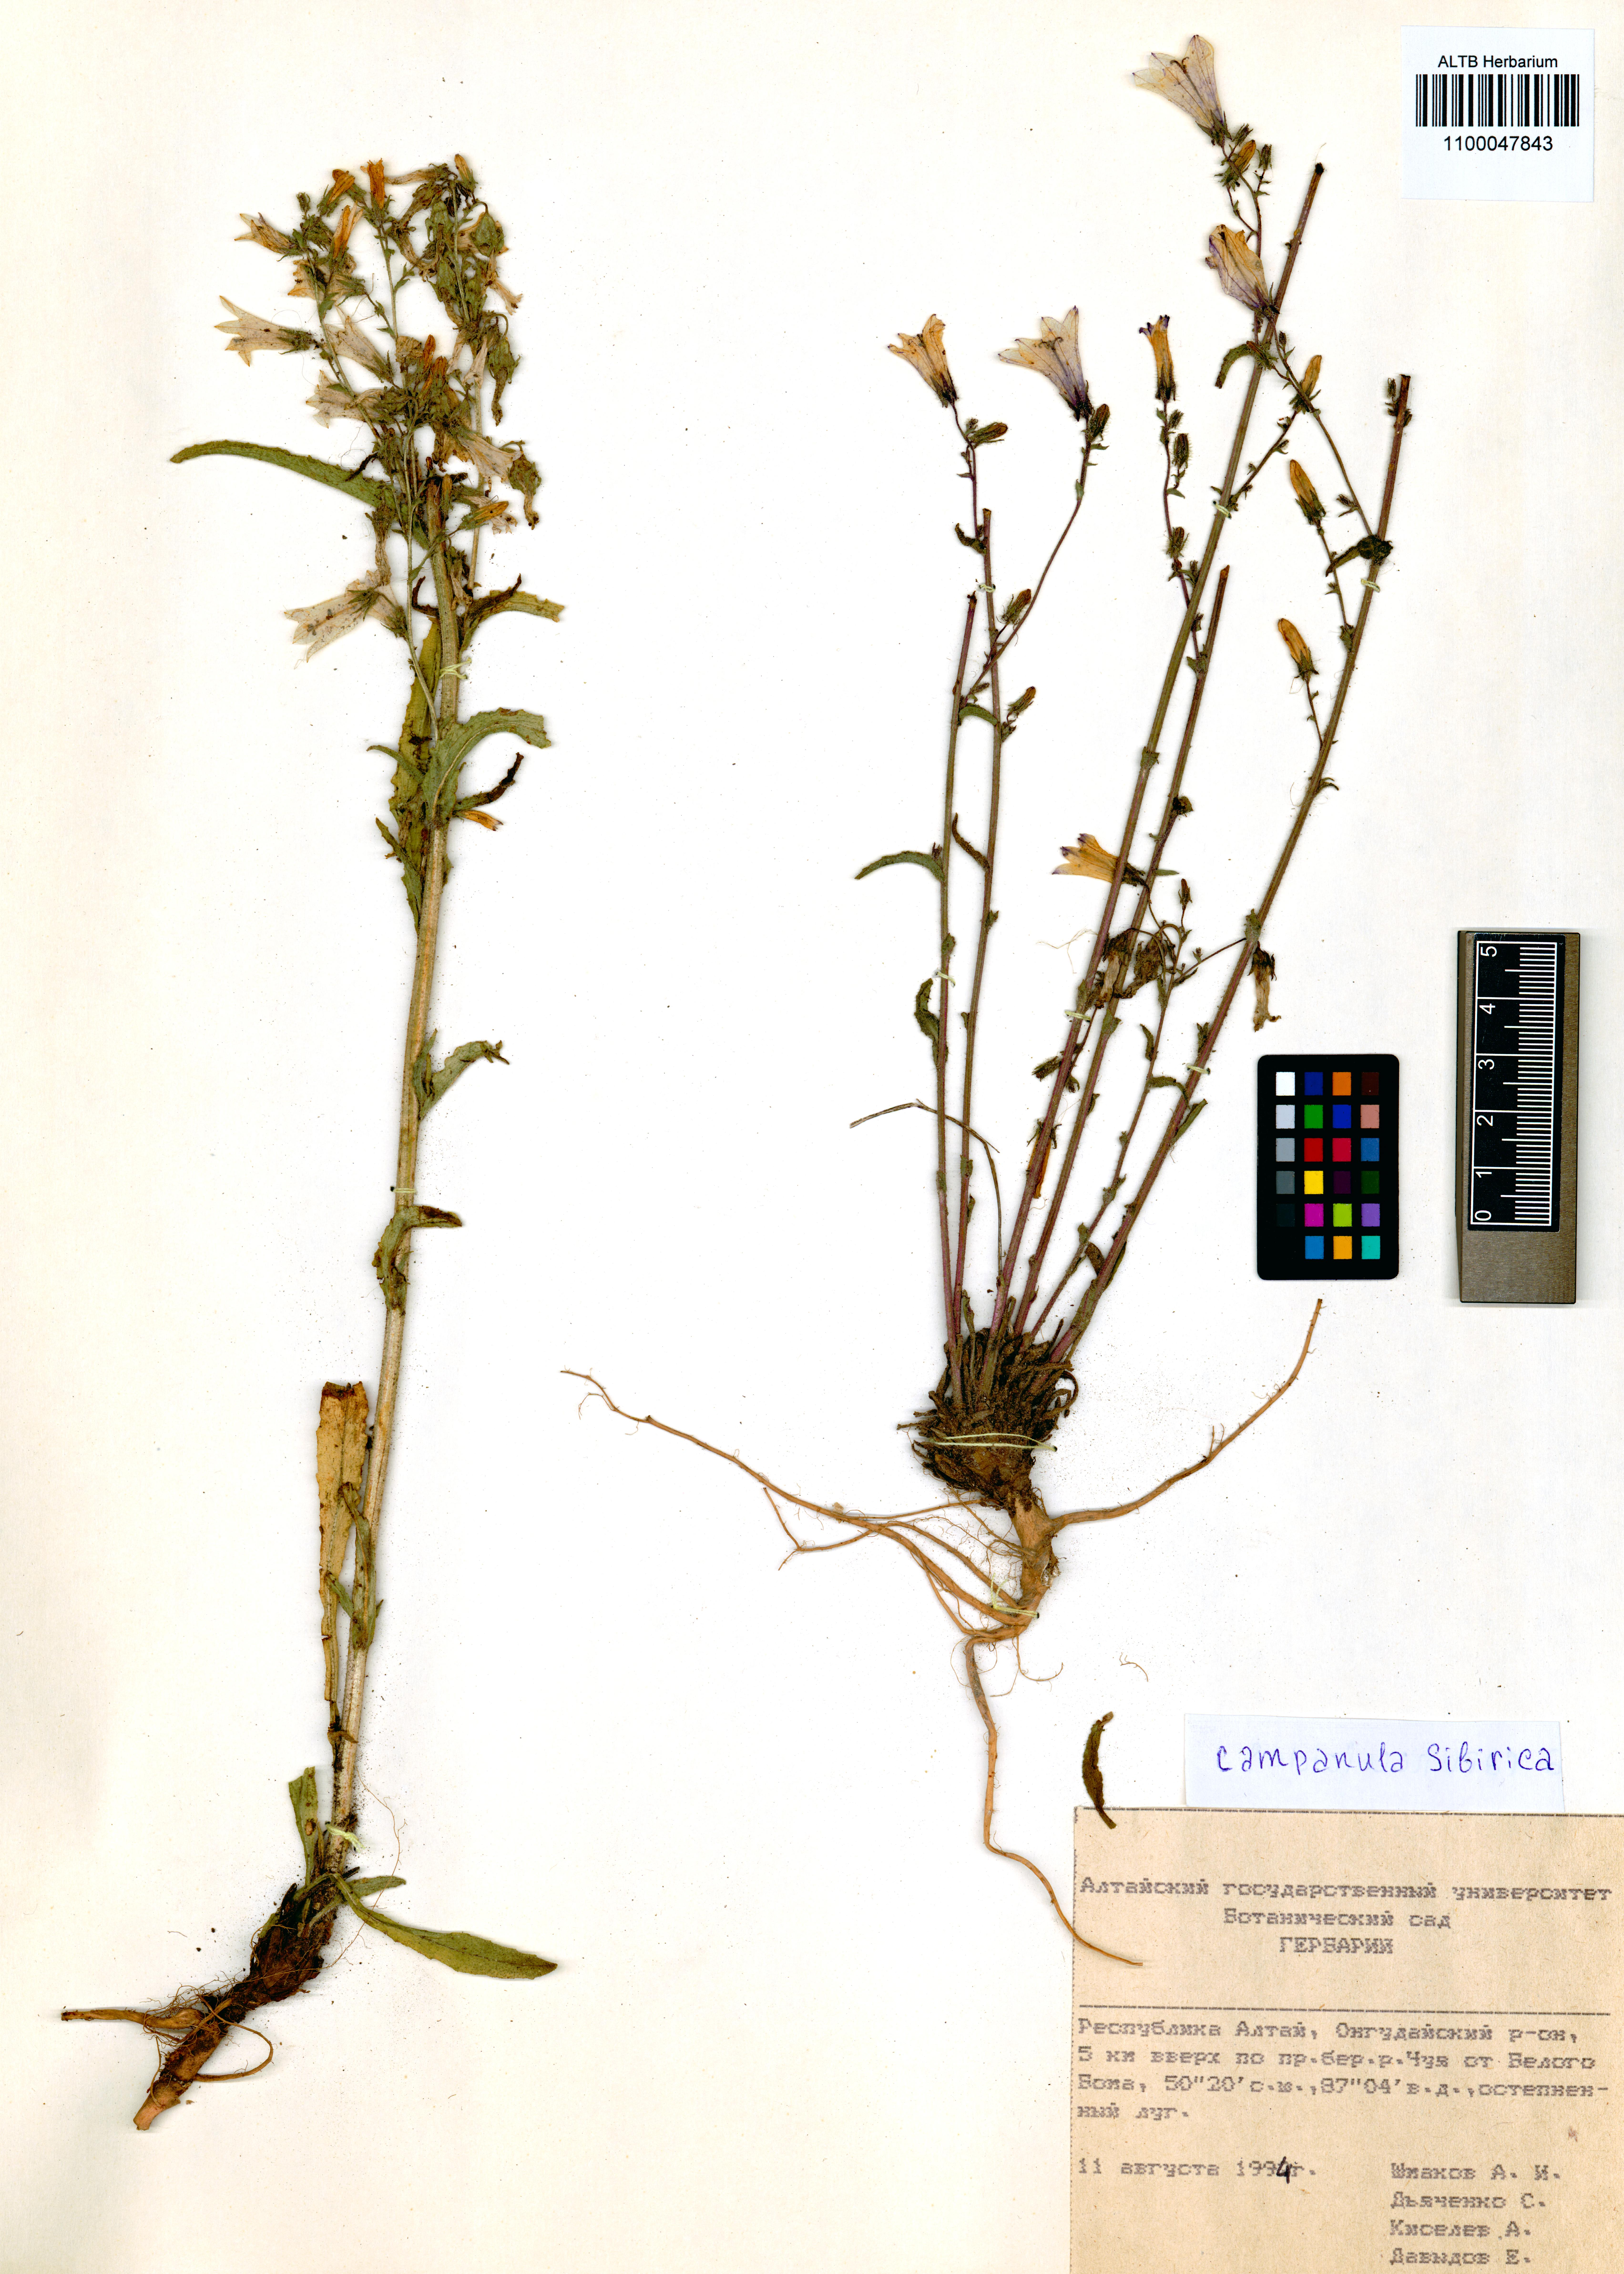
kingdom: Plantae
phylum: Tracheophyta
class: Magnoliopsida
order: Asterales
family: Campanulaceae
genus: Campanula
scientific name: Campanula sibirica
